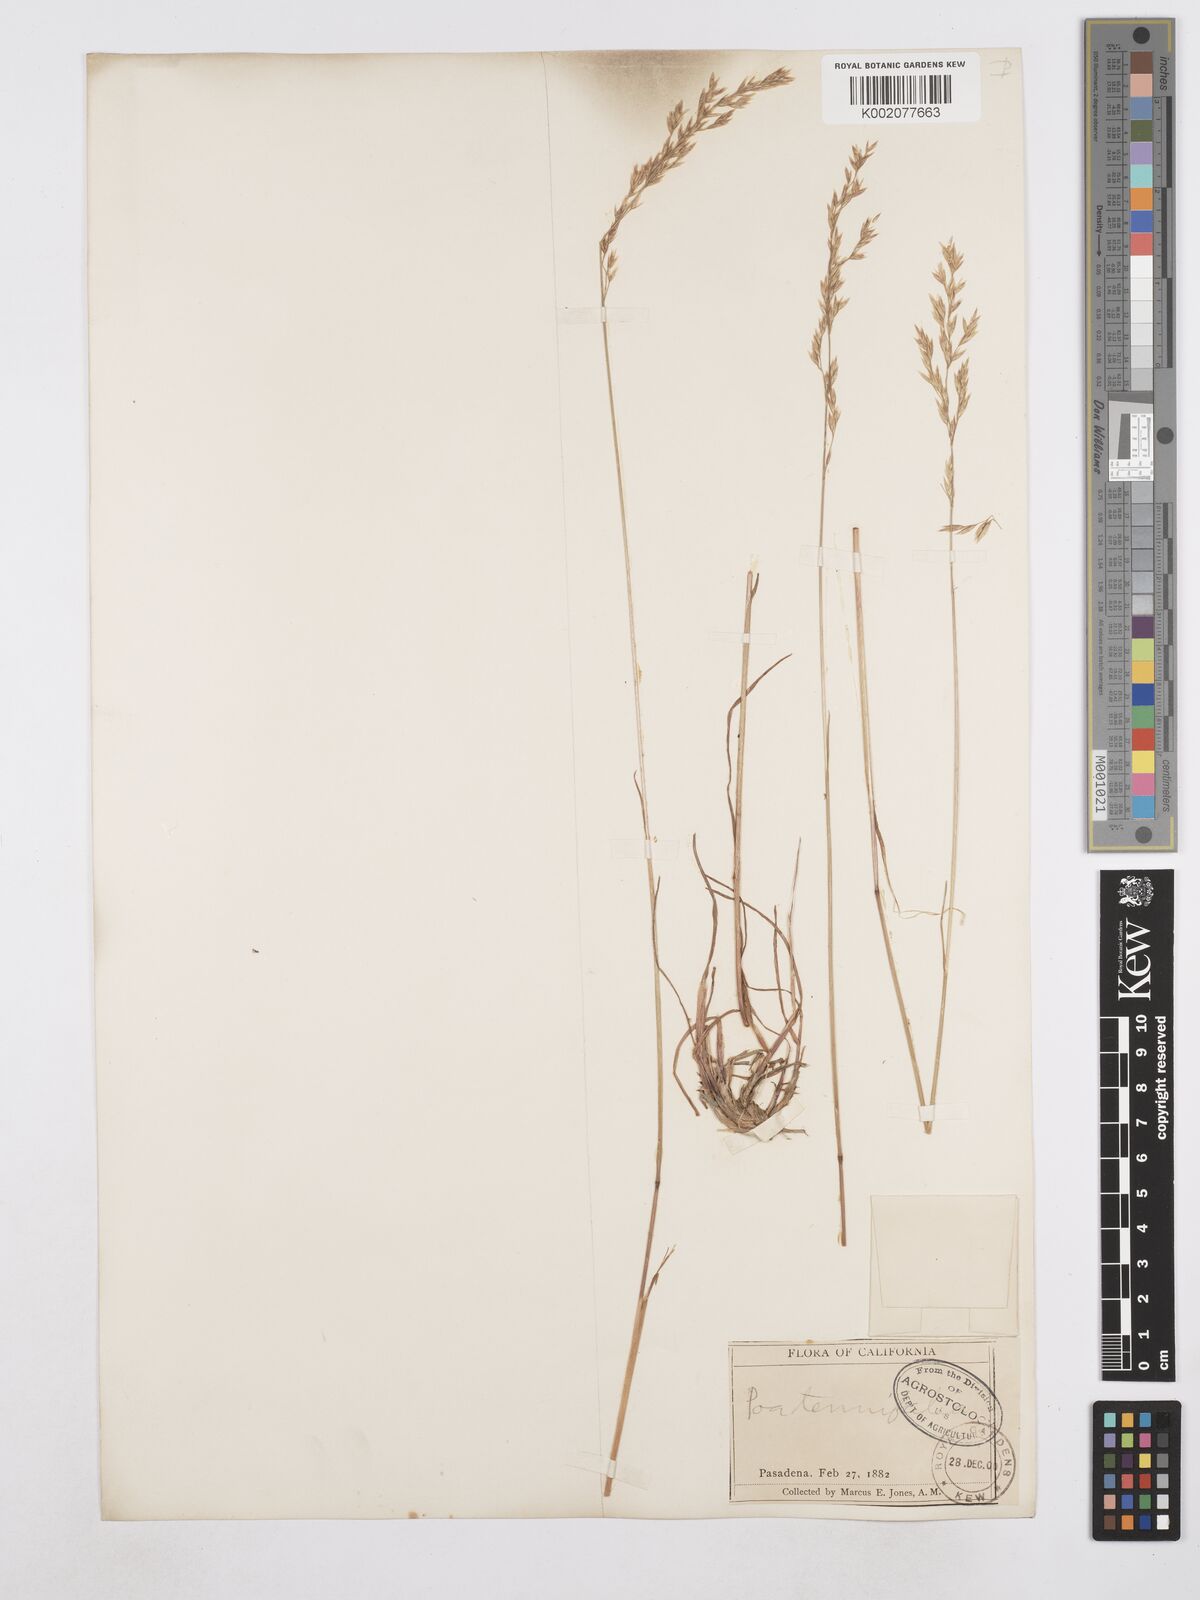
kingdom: Plantae
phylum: Tracheophyta
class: Liliopsida
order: Poales
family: Poaceae
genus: Poa
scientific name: Poa secunda
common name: Sandberg bluegrass
